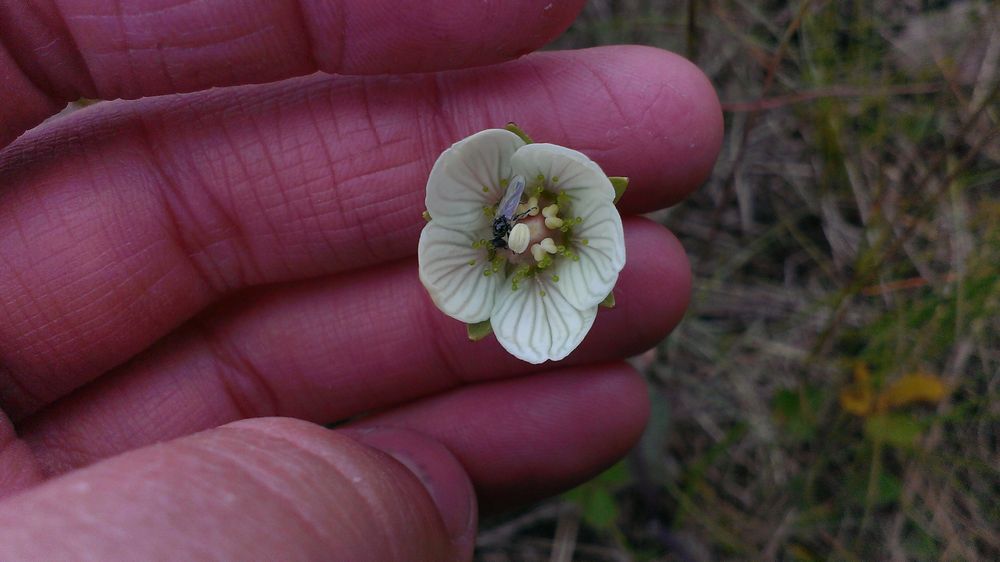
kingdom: Plantae
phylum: Tracheophyta
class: Magnoliopsida
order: Celastrales
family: Parnassiaceae
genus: Parnassia
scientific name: Parnassia palustris
